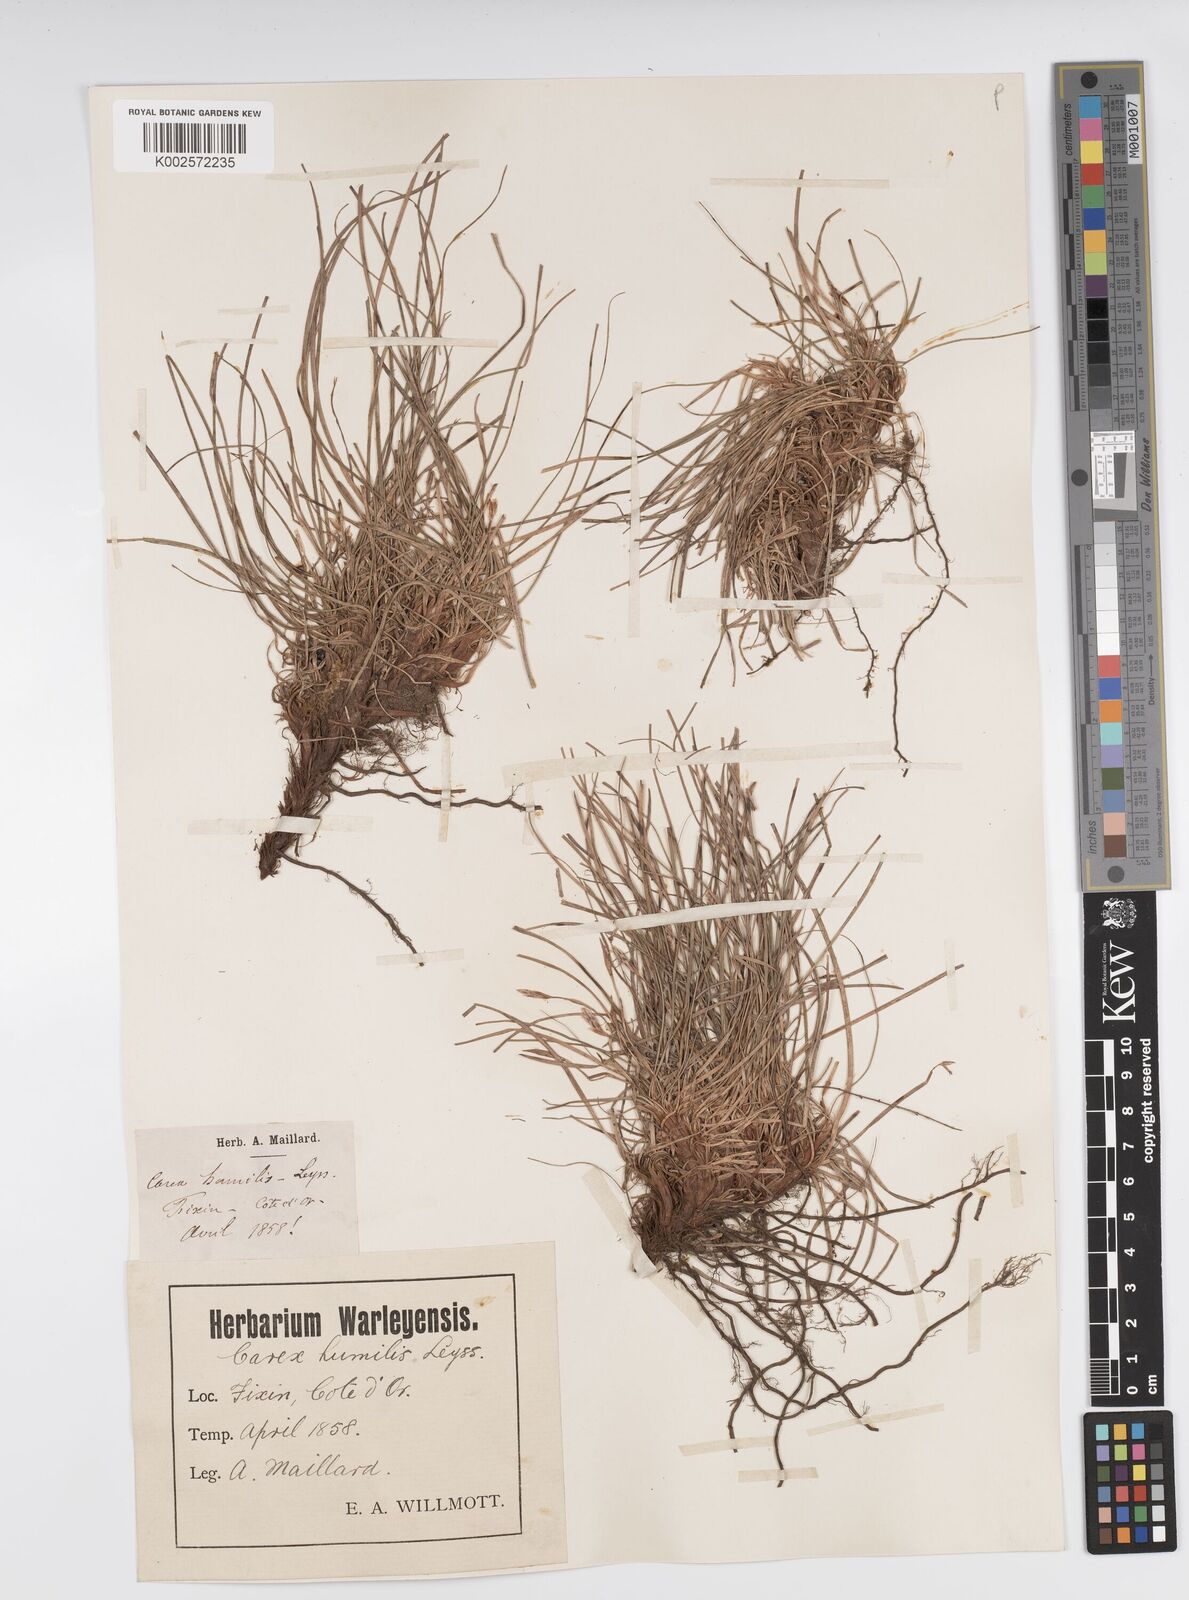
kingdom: Plantae
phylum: Tracheophyta
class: Liliopsida
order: Poales
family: Cyperaceae
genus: Carex
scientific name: Carex humilis
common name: Dwarf sedge
